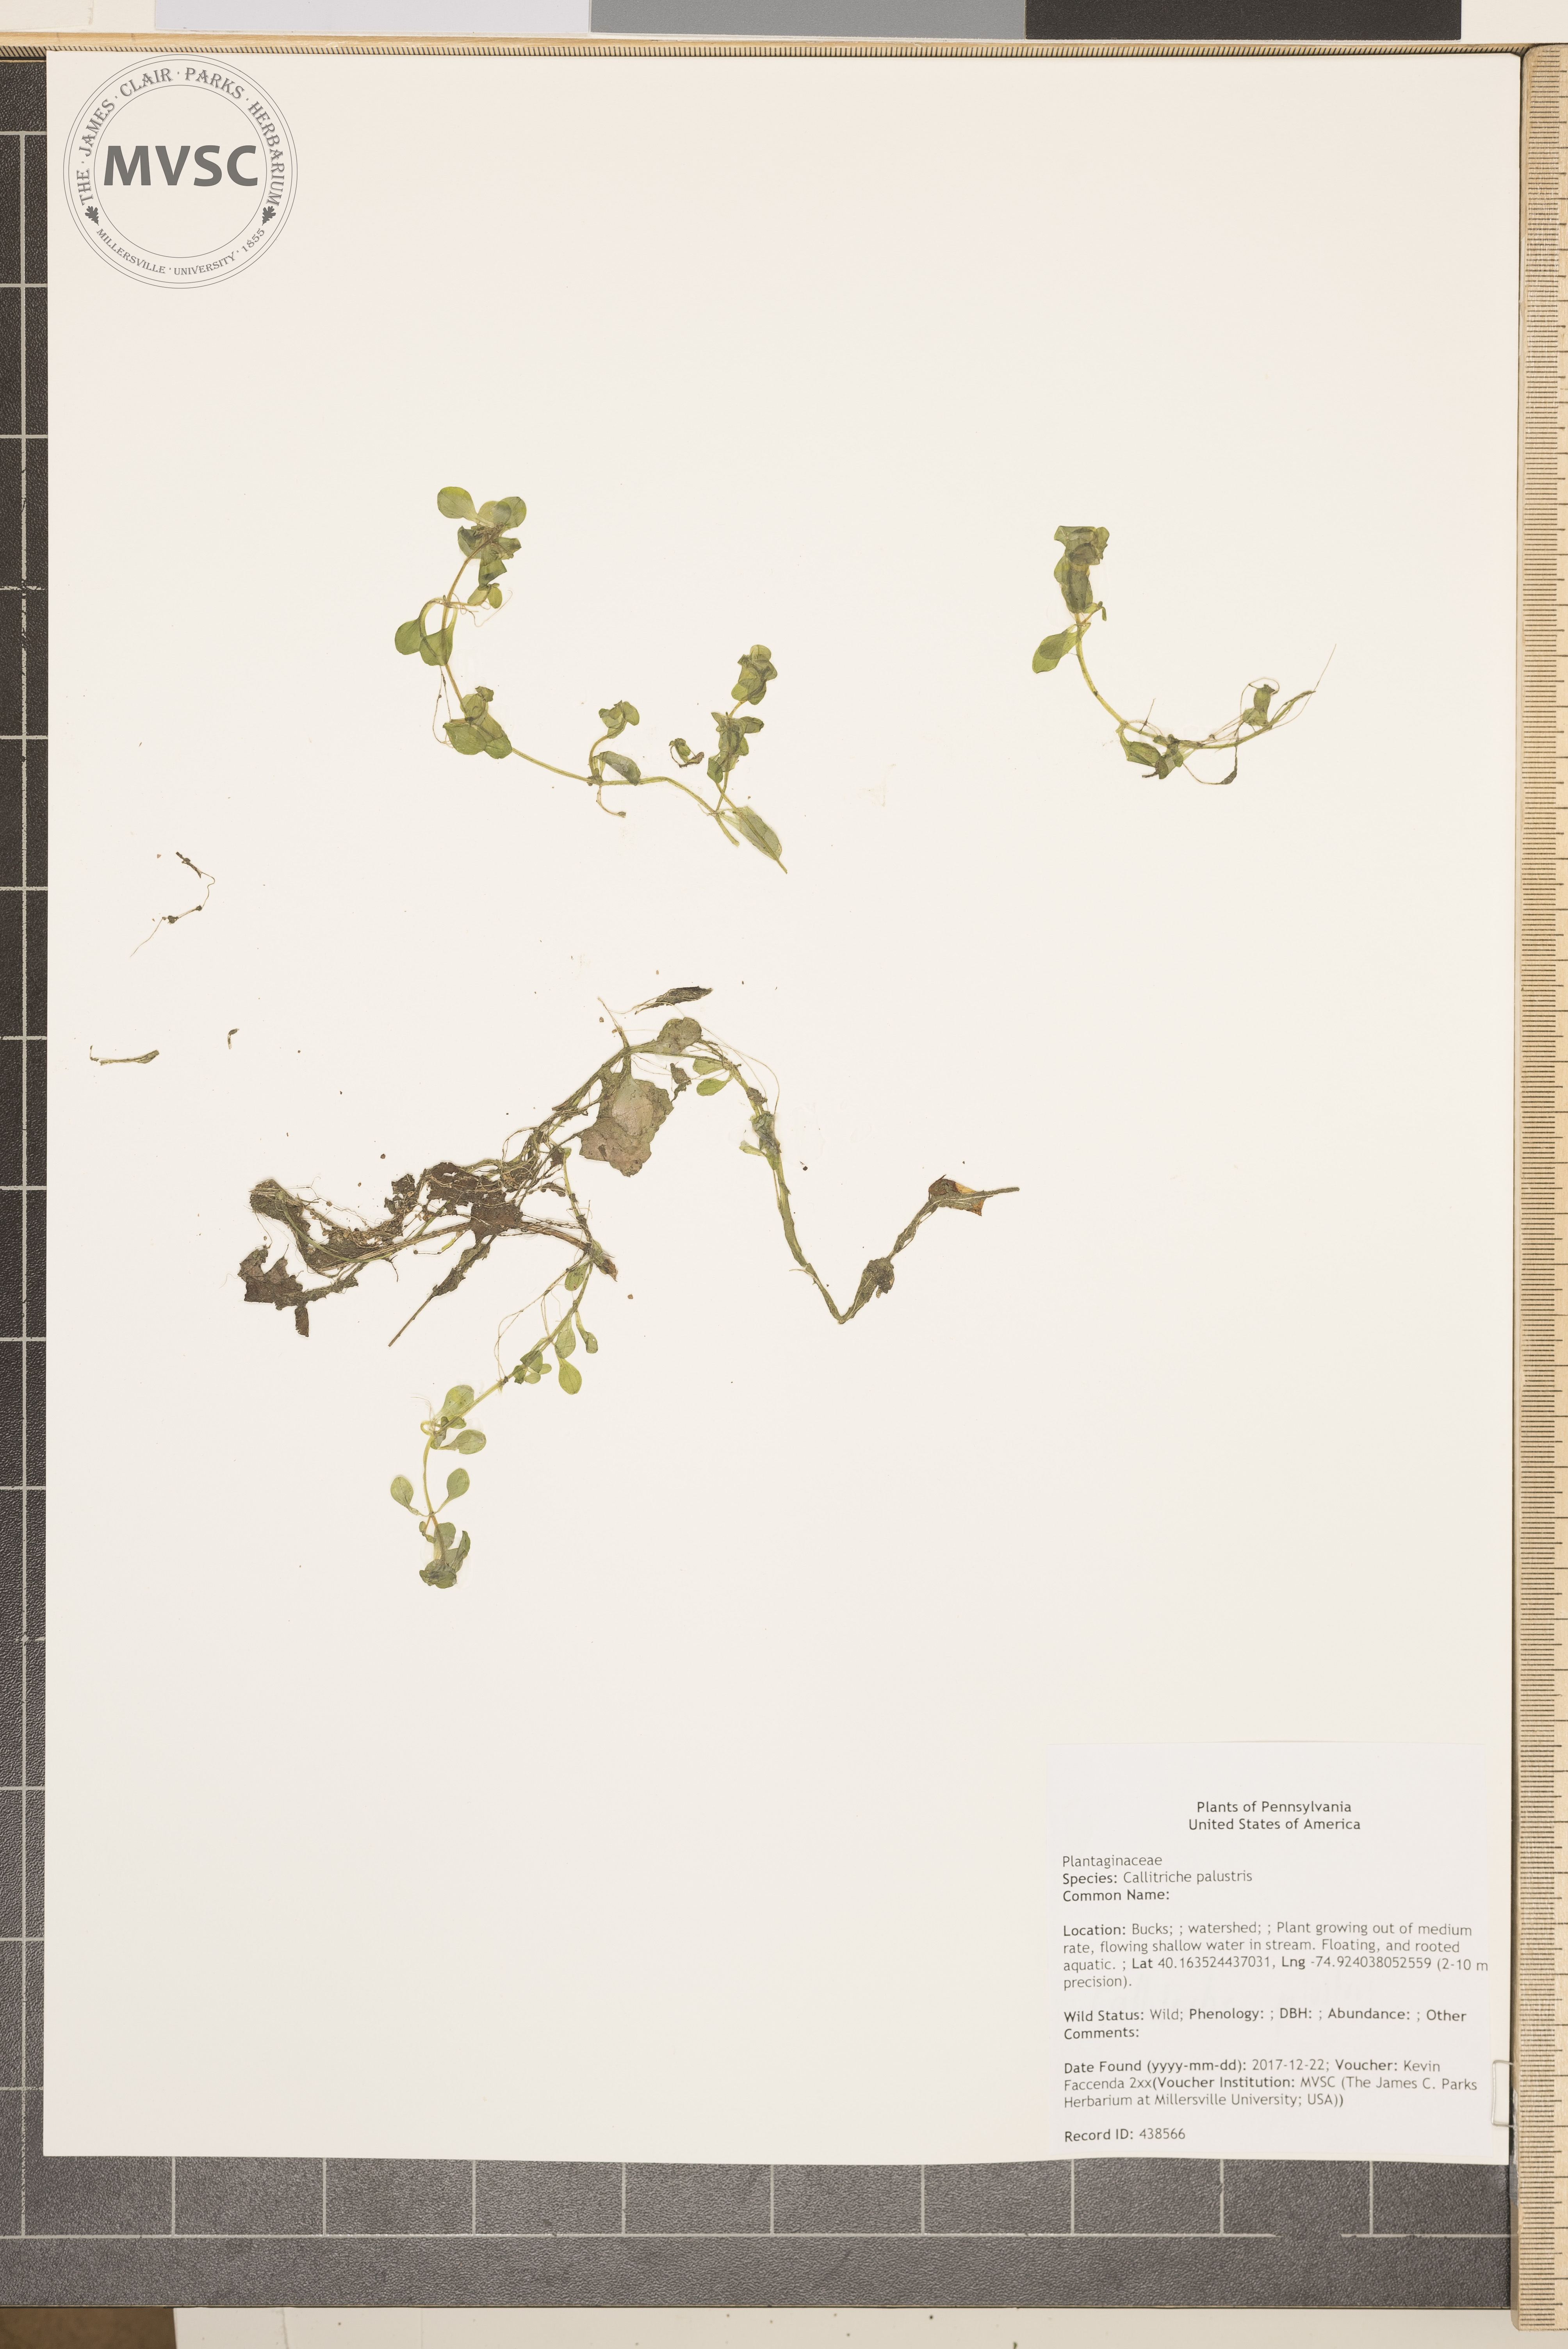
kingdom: Plantae
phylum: Tracheophyta
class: Magnoliopsida
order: Lamiales
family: Plantaginaceae
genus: Callitriche
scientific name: Callitriche palustris
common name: Spring water-starwort
